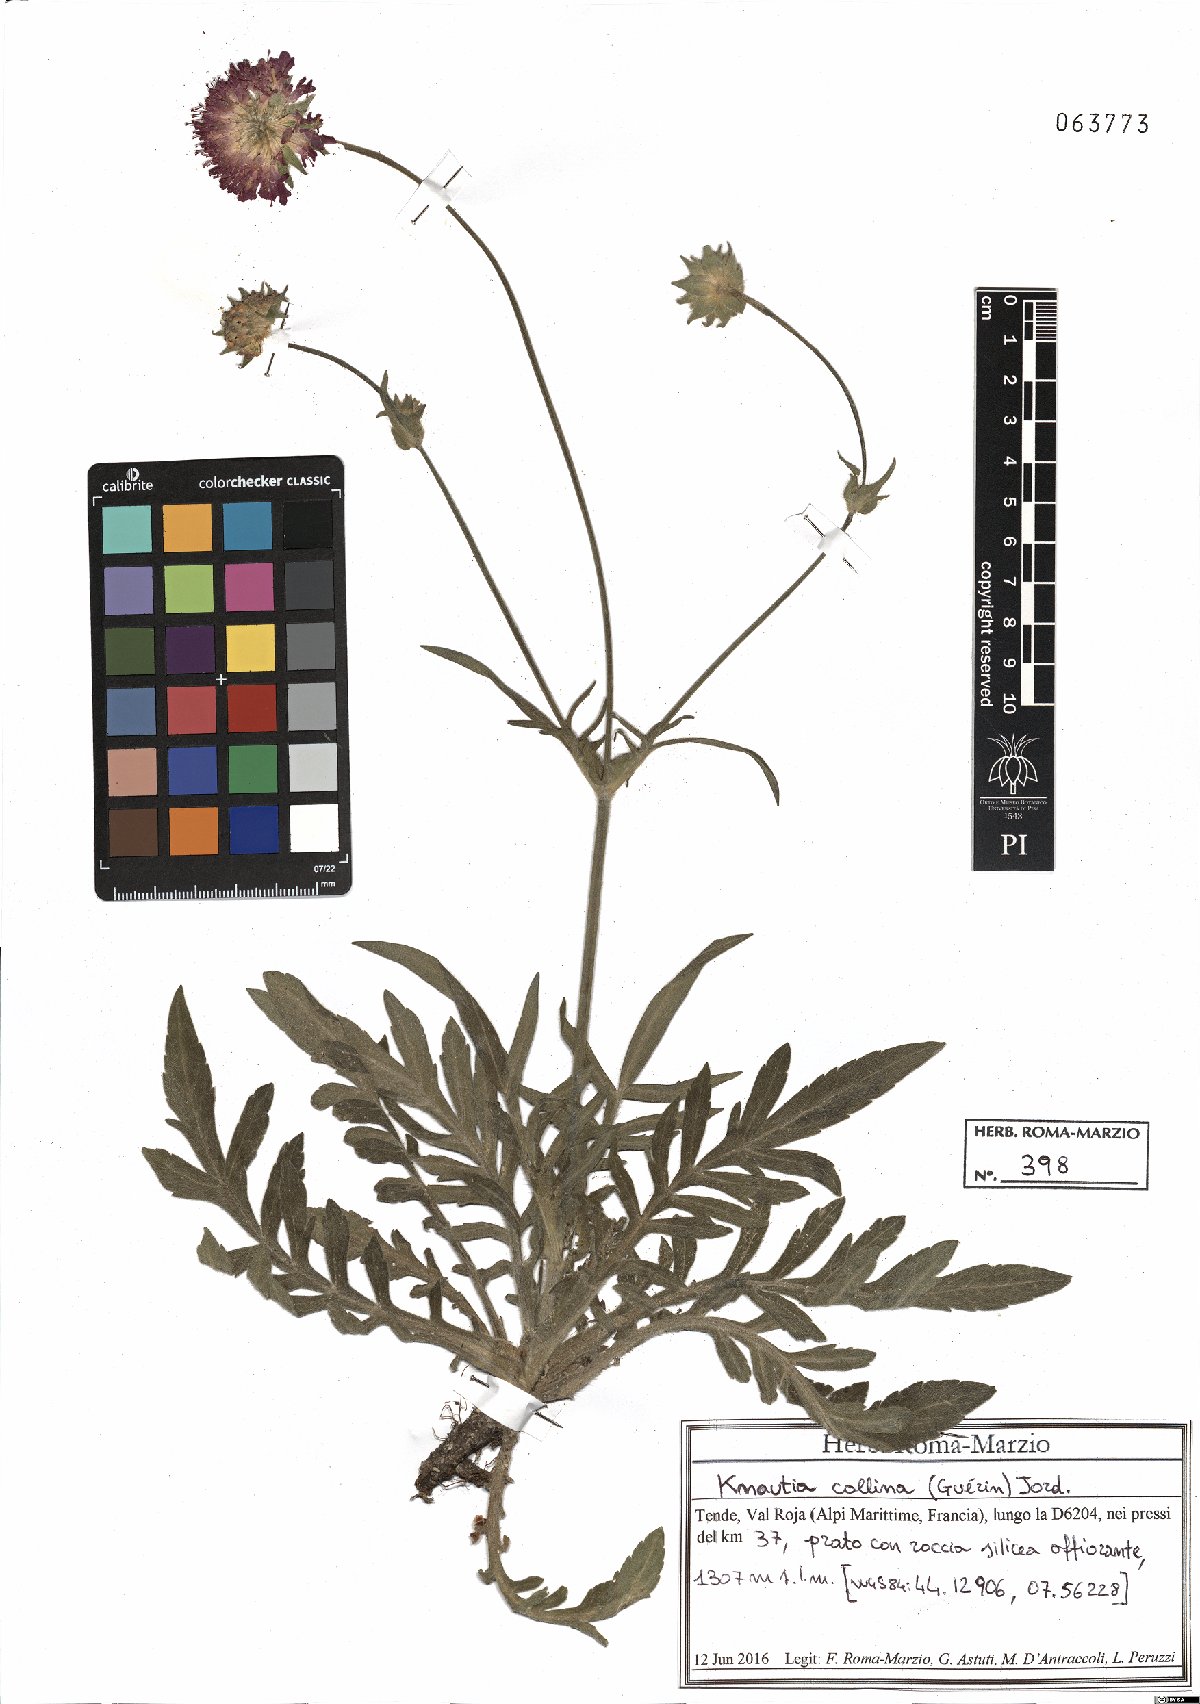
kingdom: Plantae
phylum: Tracheophyta
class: Magnoliopsida
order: Dipsacales
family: Caprifoliaceae
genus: Knautia
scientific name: Knautia collina
